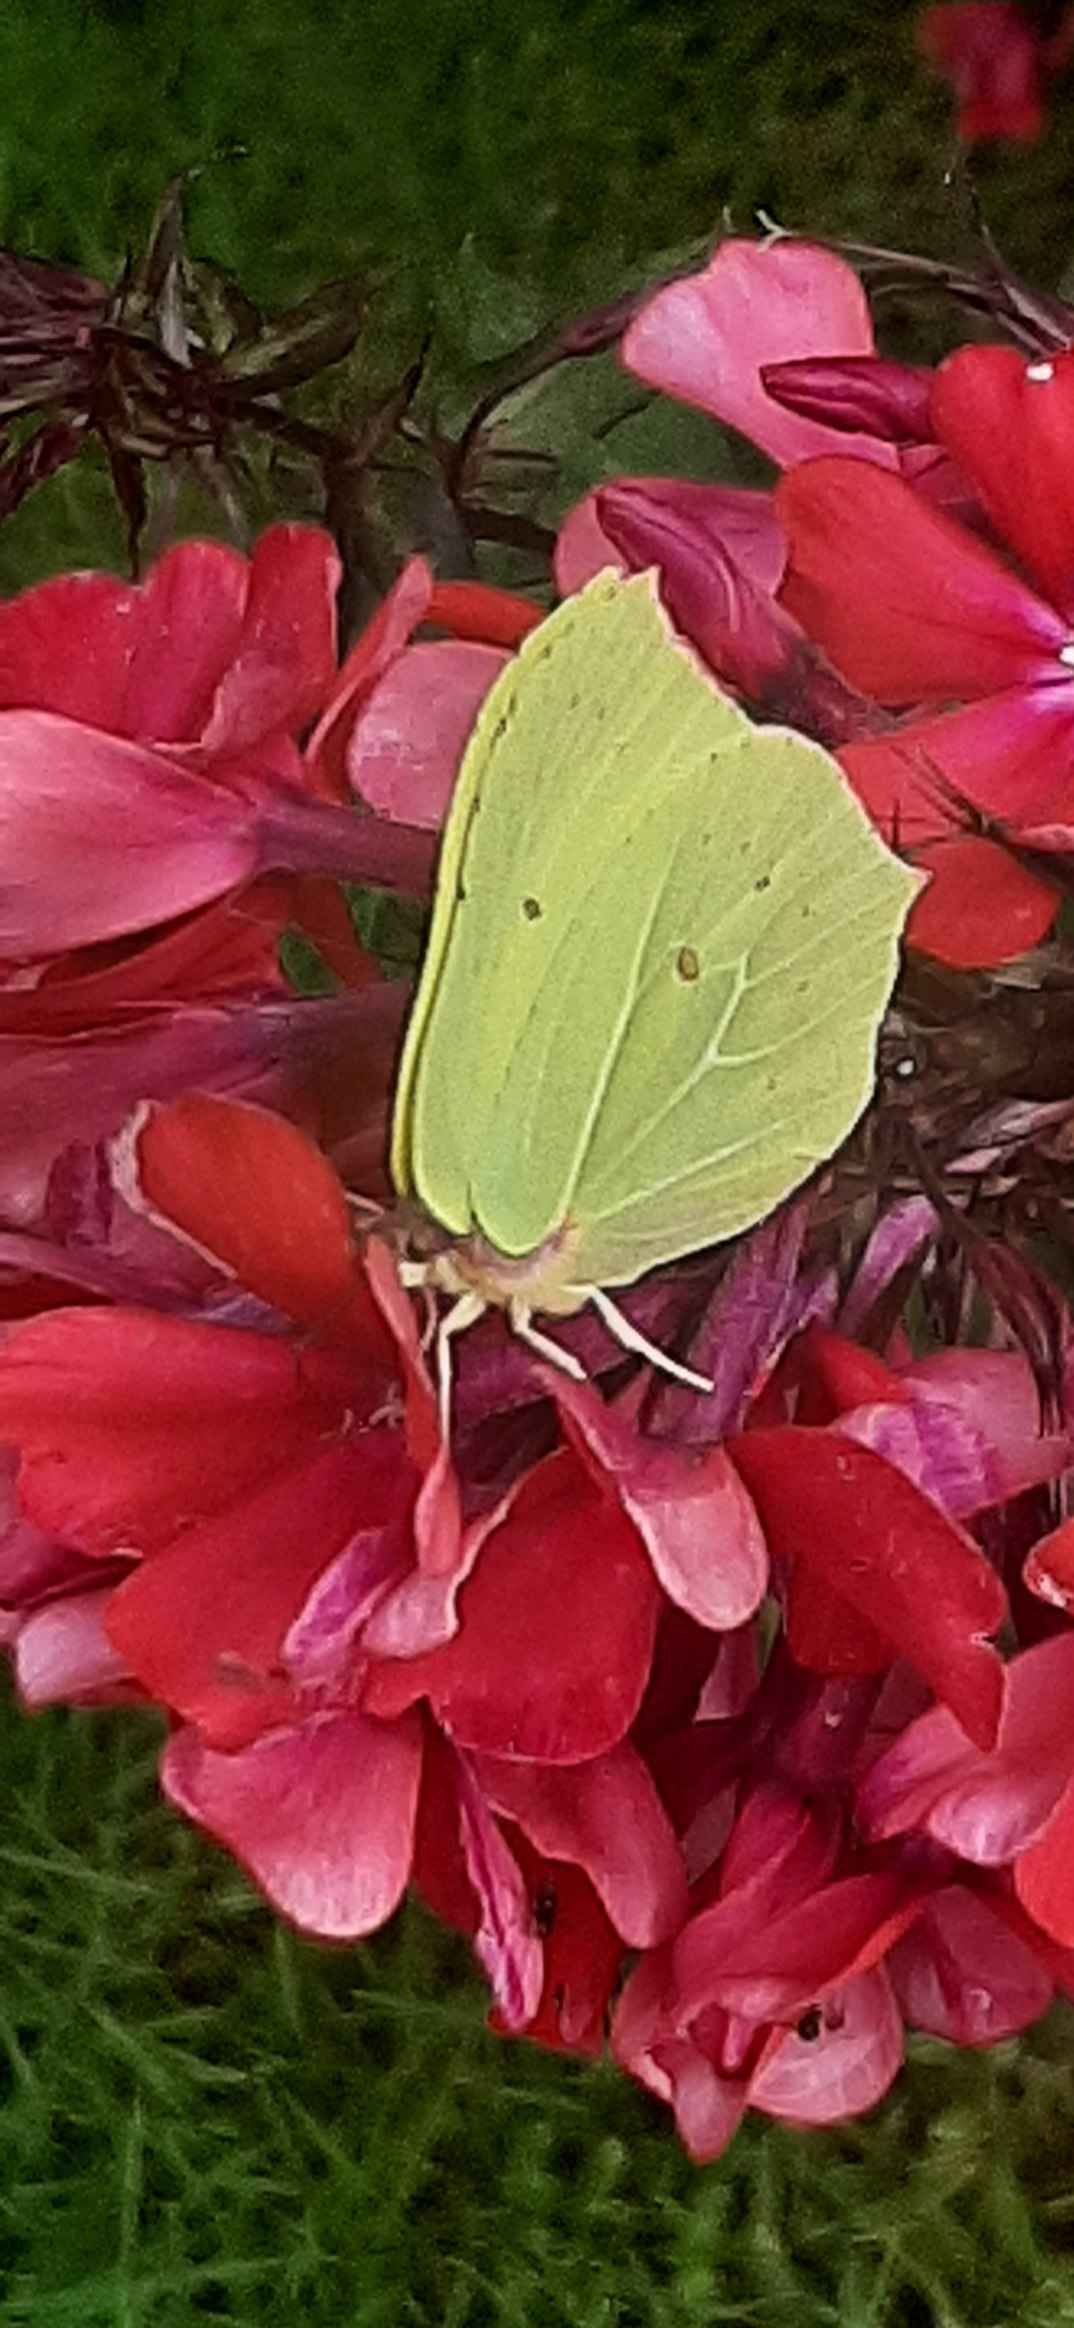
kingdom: Animalia
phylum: Arthropoda
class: Insecta
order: Lepidoptera
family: Pieridae
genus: Gonepteryx
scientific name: Gonepteryx rhamni
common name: Citronsommerfugl
